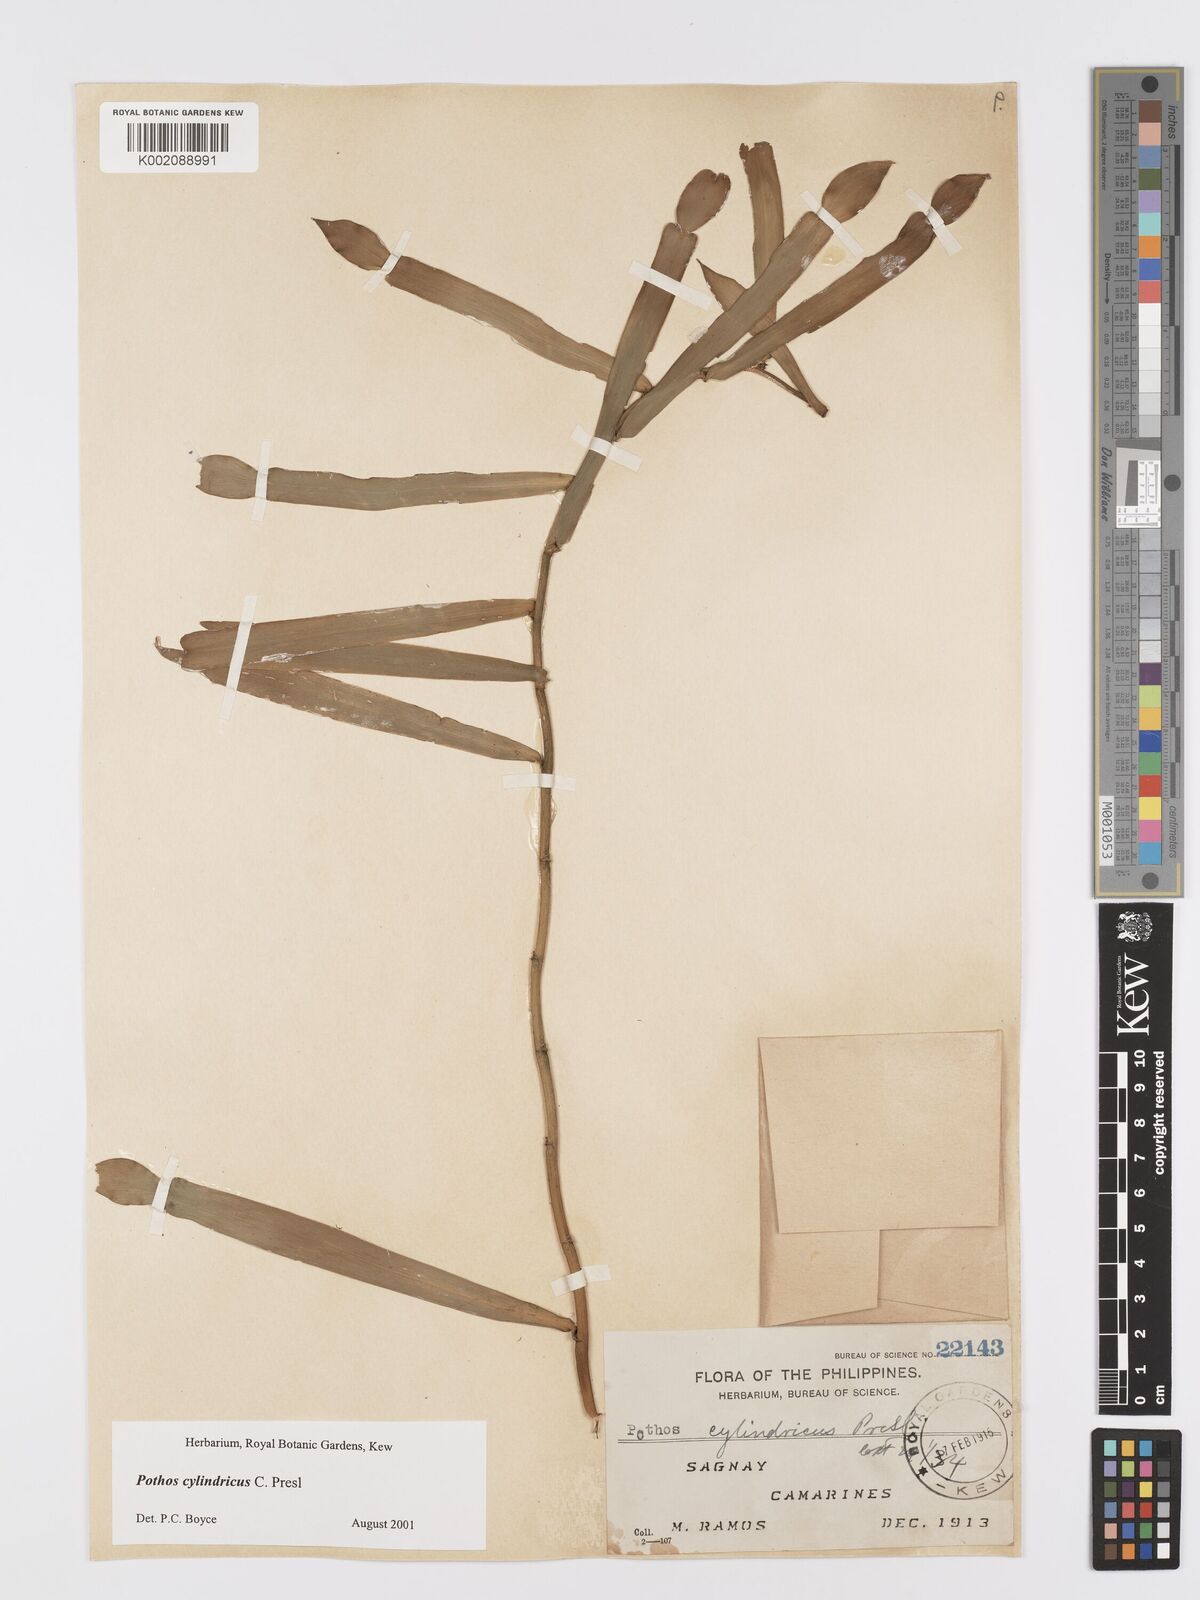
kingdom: Plantae
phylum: Tracheophyta
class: Liliopsida
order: Alismatales
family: Araceae
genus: Pothos
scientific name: Pothos cylindricus
